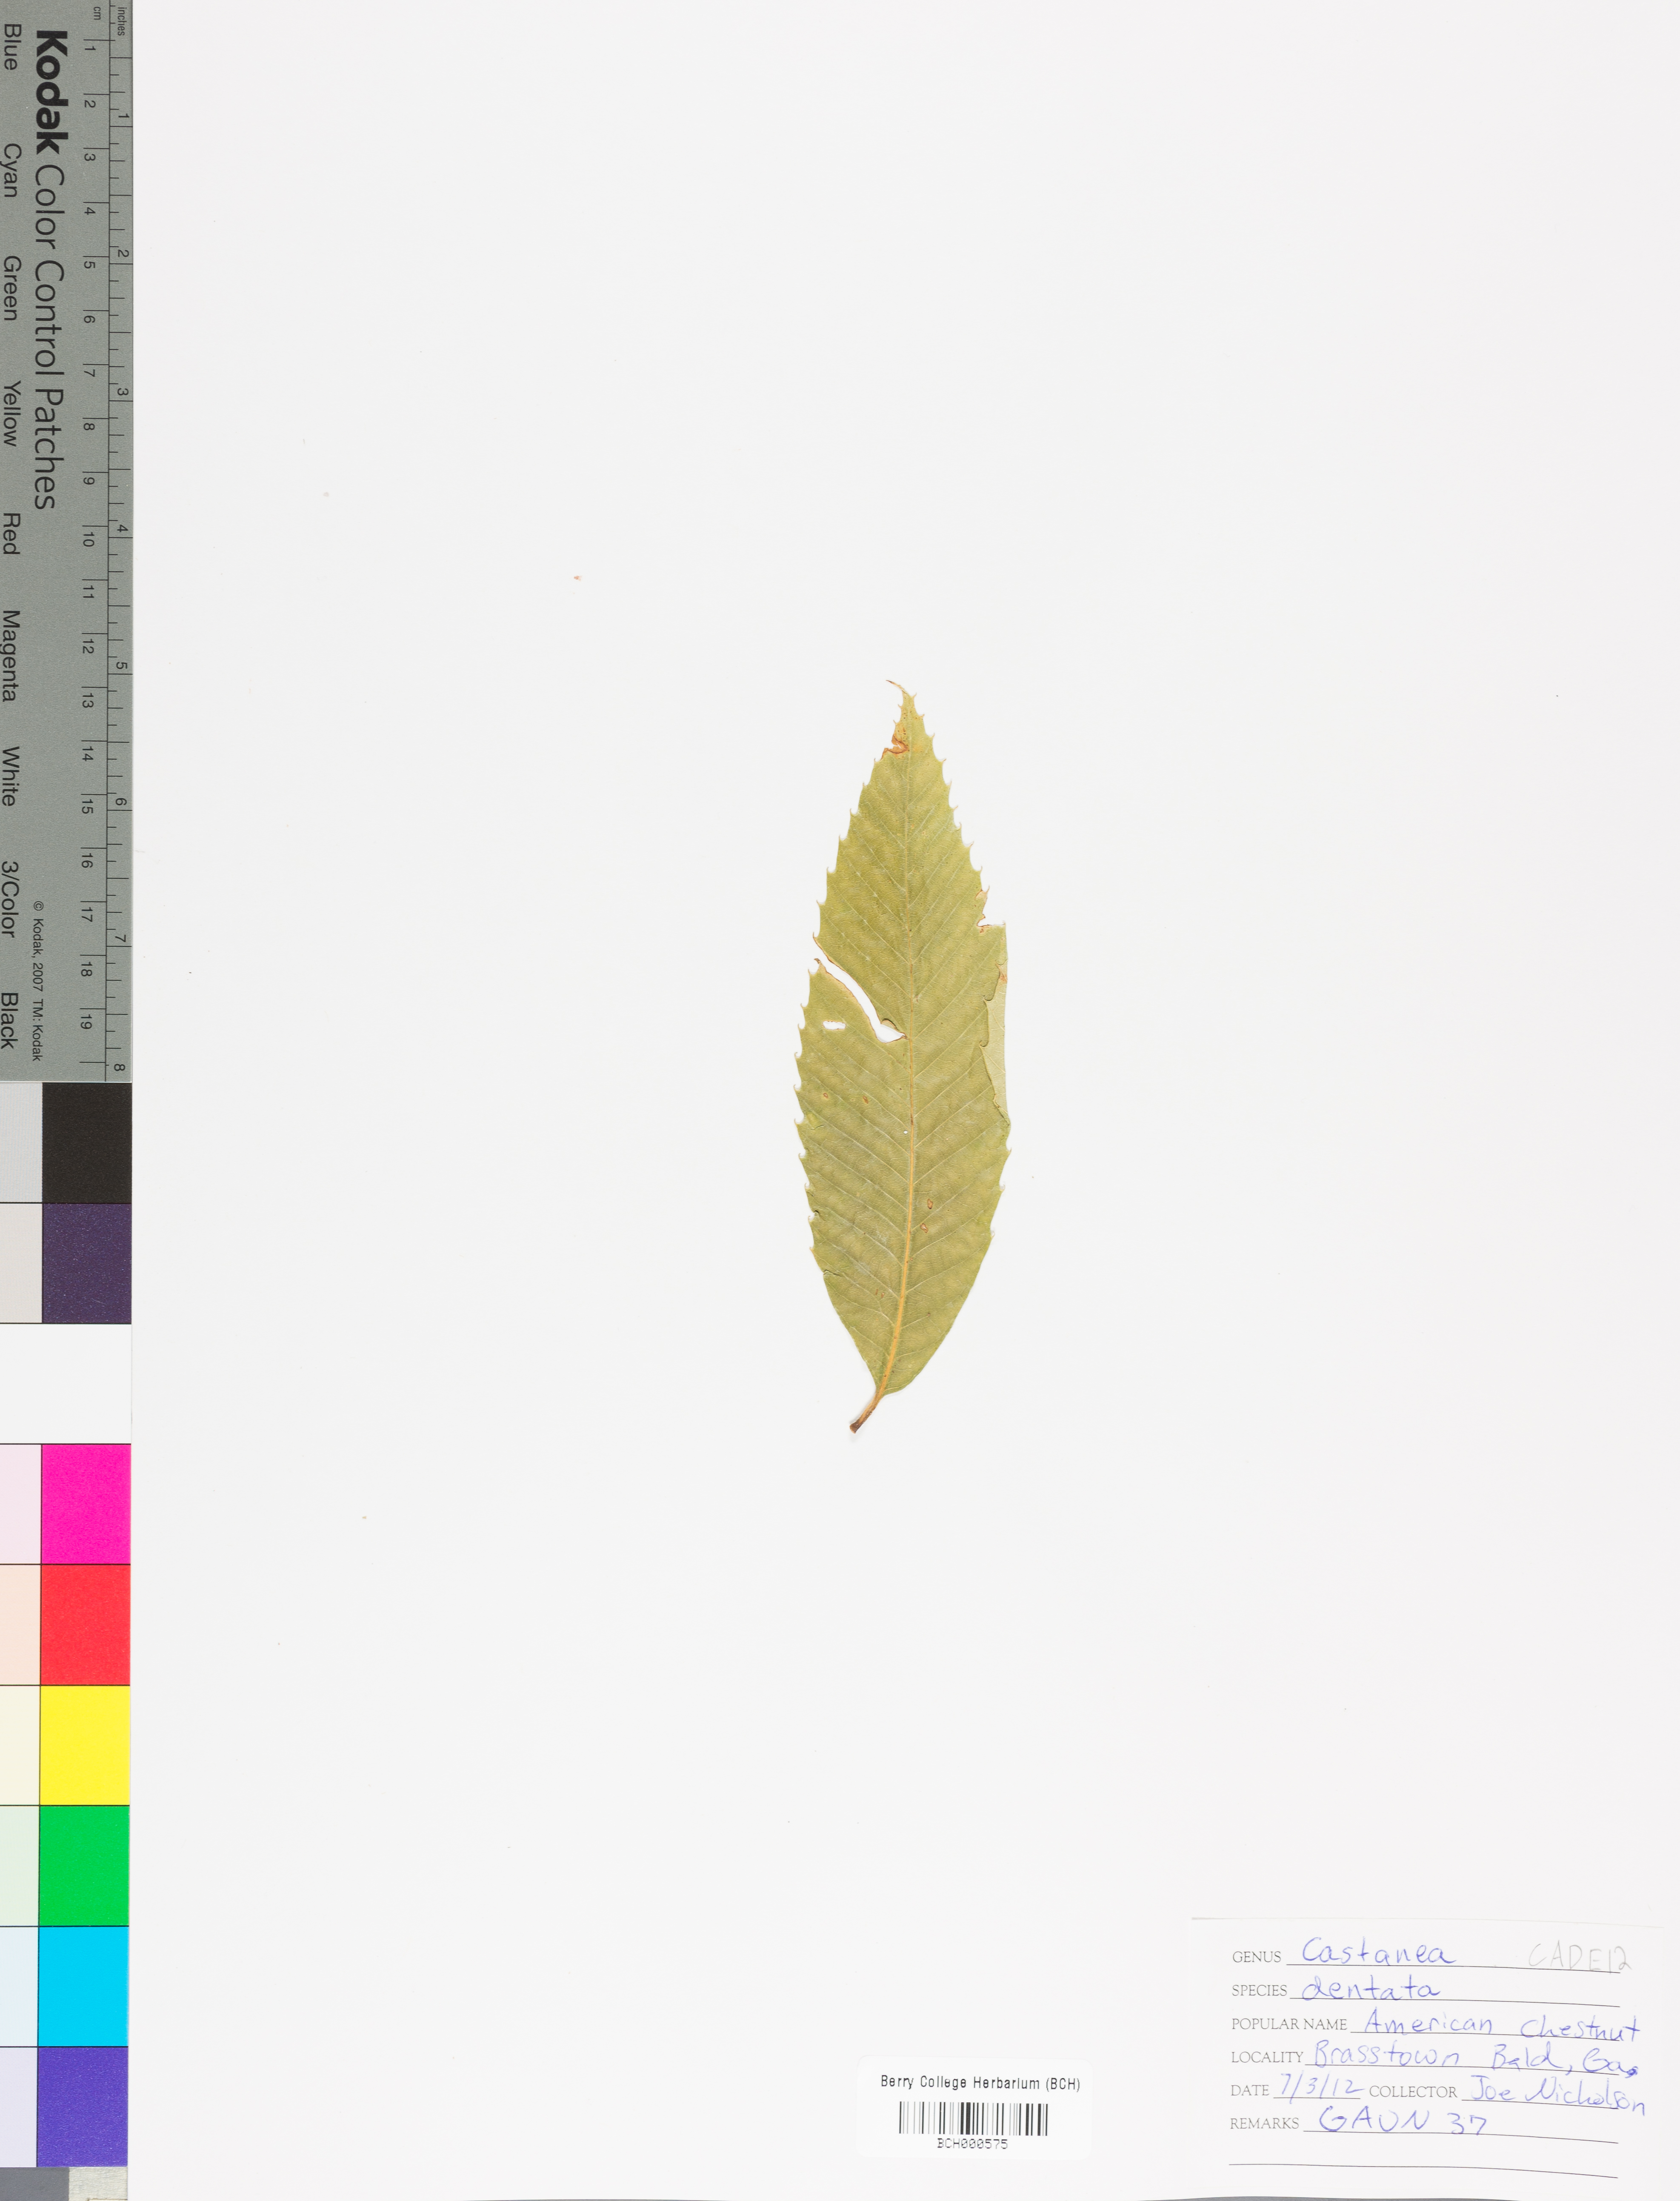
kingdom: Plantae
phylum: Tracheophyta
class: Magnoliopsida
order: Fagales
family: Fagaceae
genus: Castanea
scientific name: Castanea dentata
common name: American chestnut
